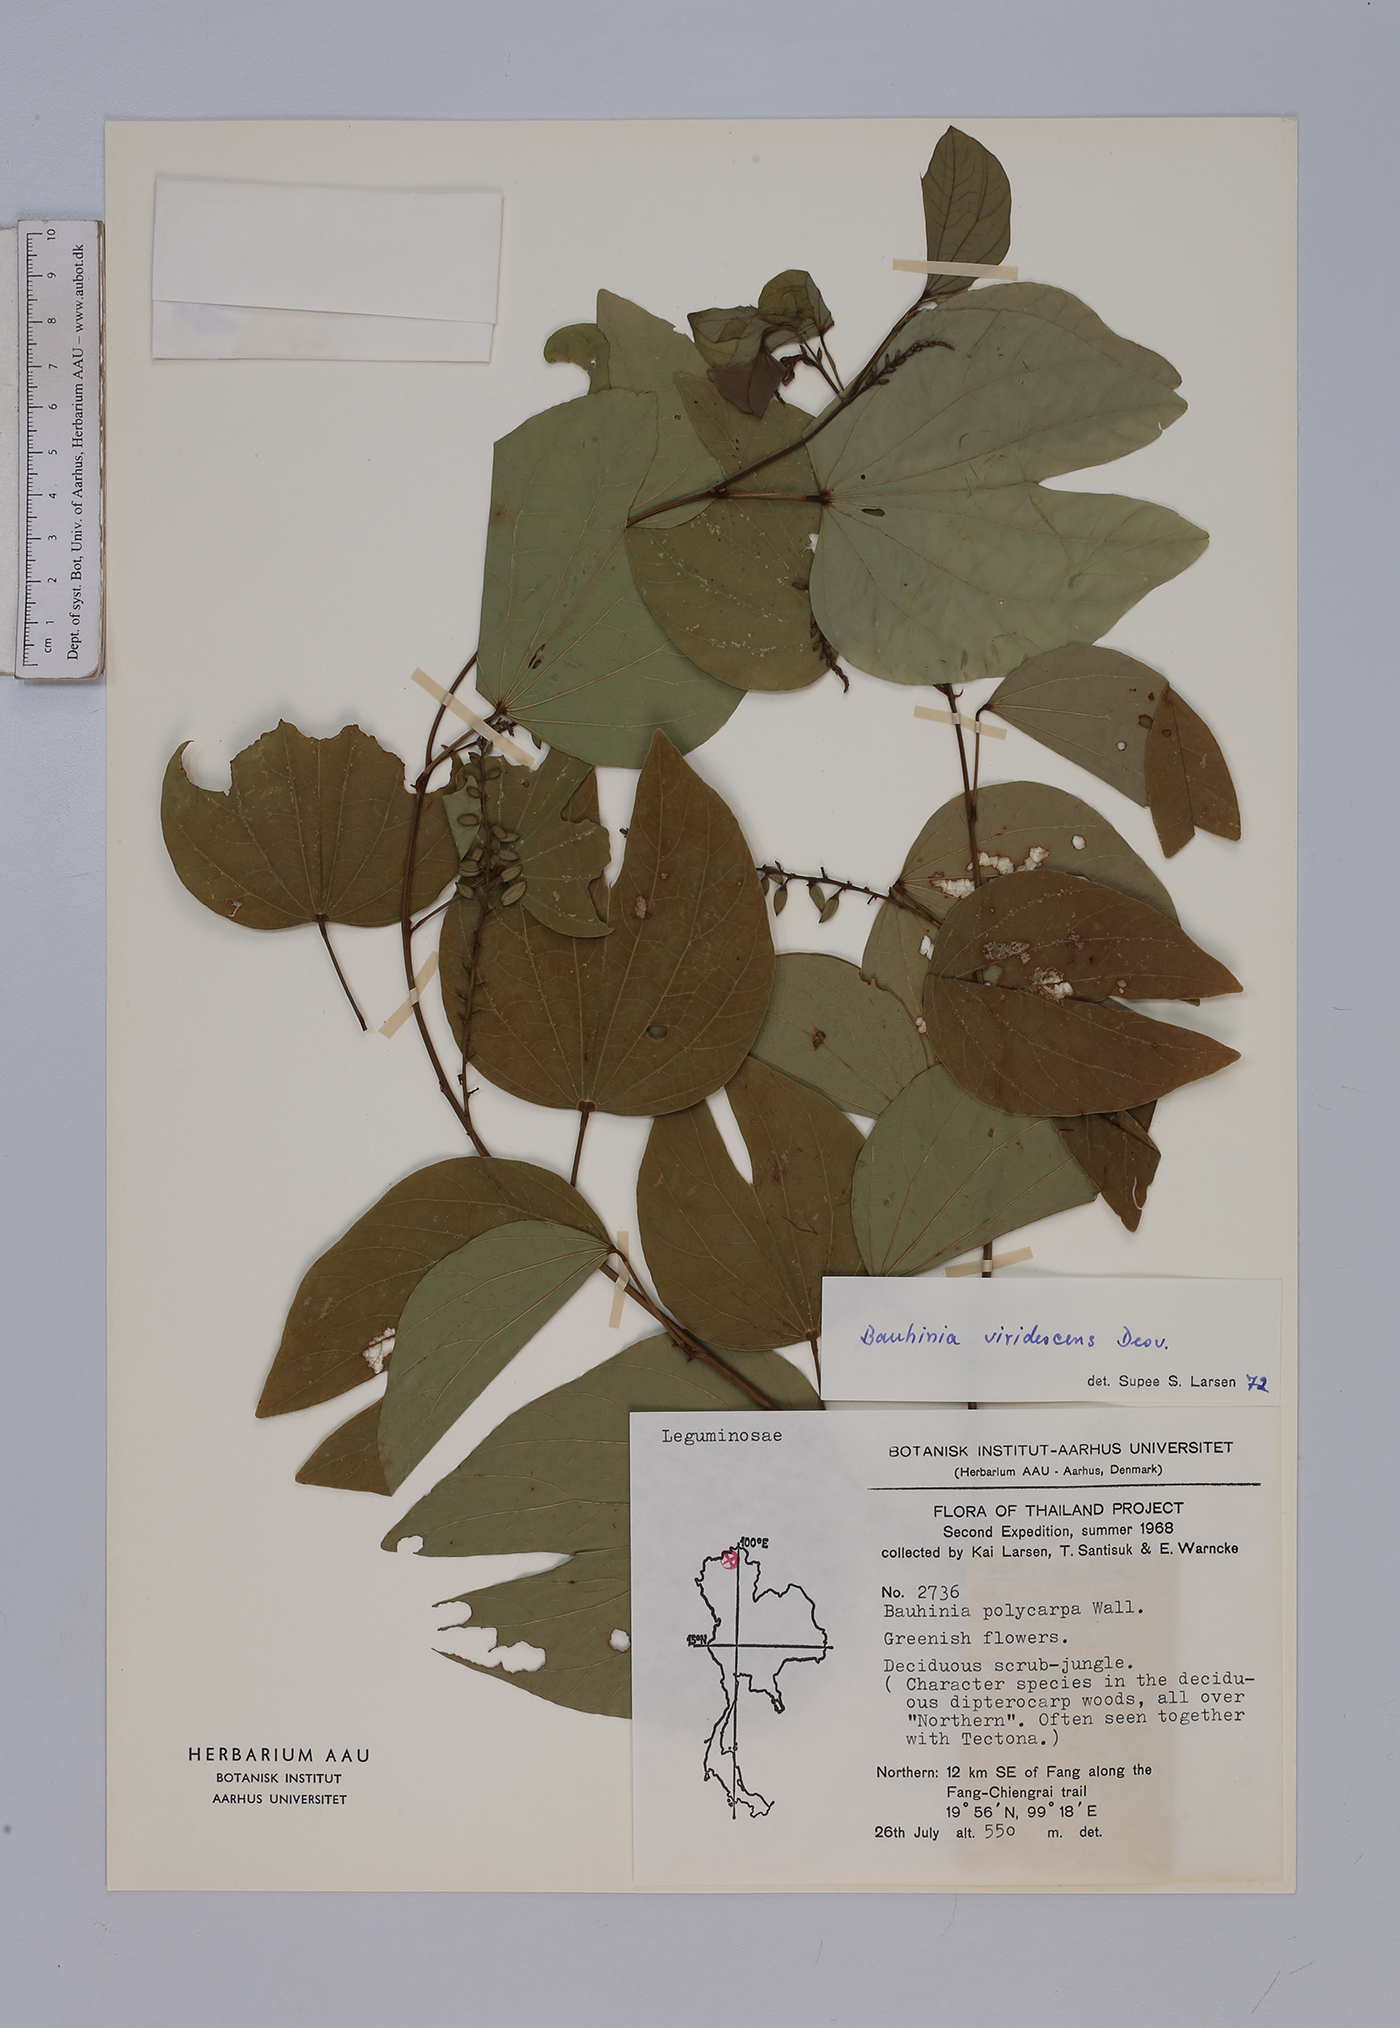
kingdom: Plantae
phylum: Tracheophyta
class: Magnoliopsida
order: Fabales
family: Fabaceae
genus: Bauhinia
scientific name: Bauhinia viridescens
